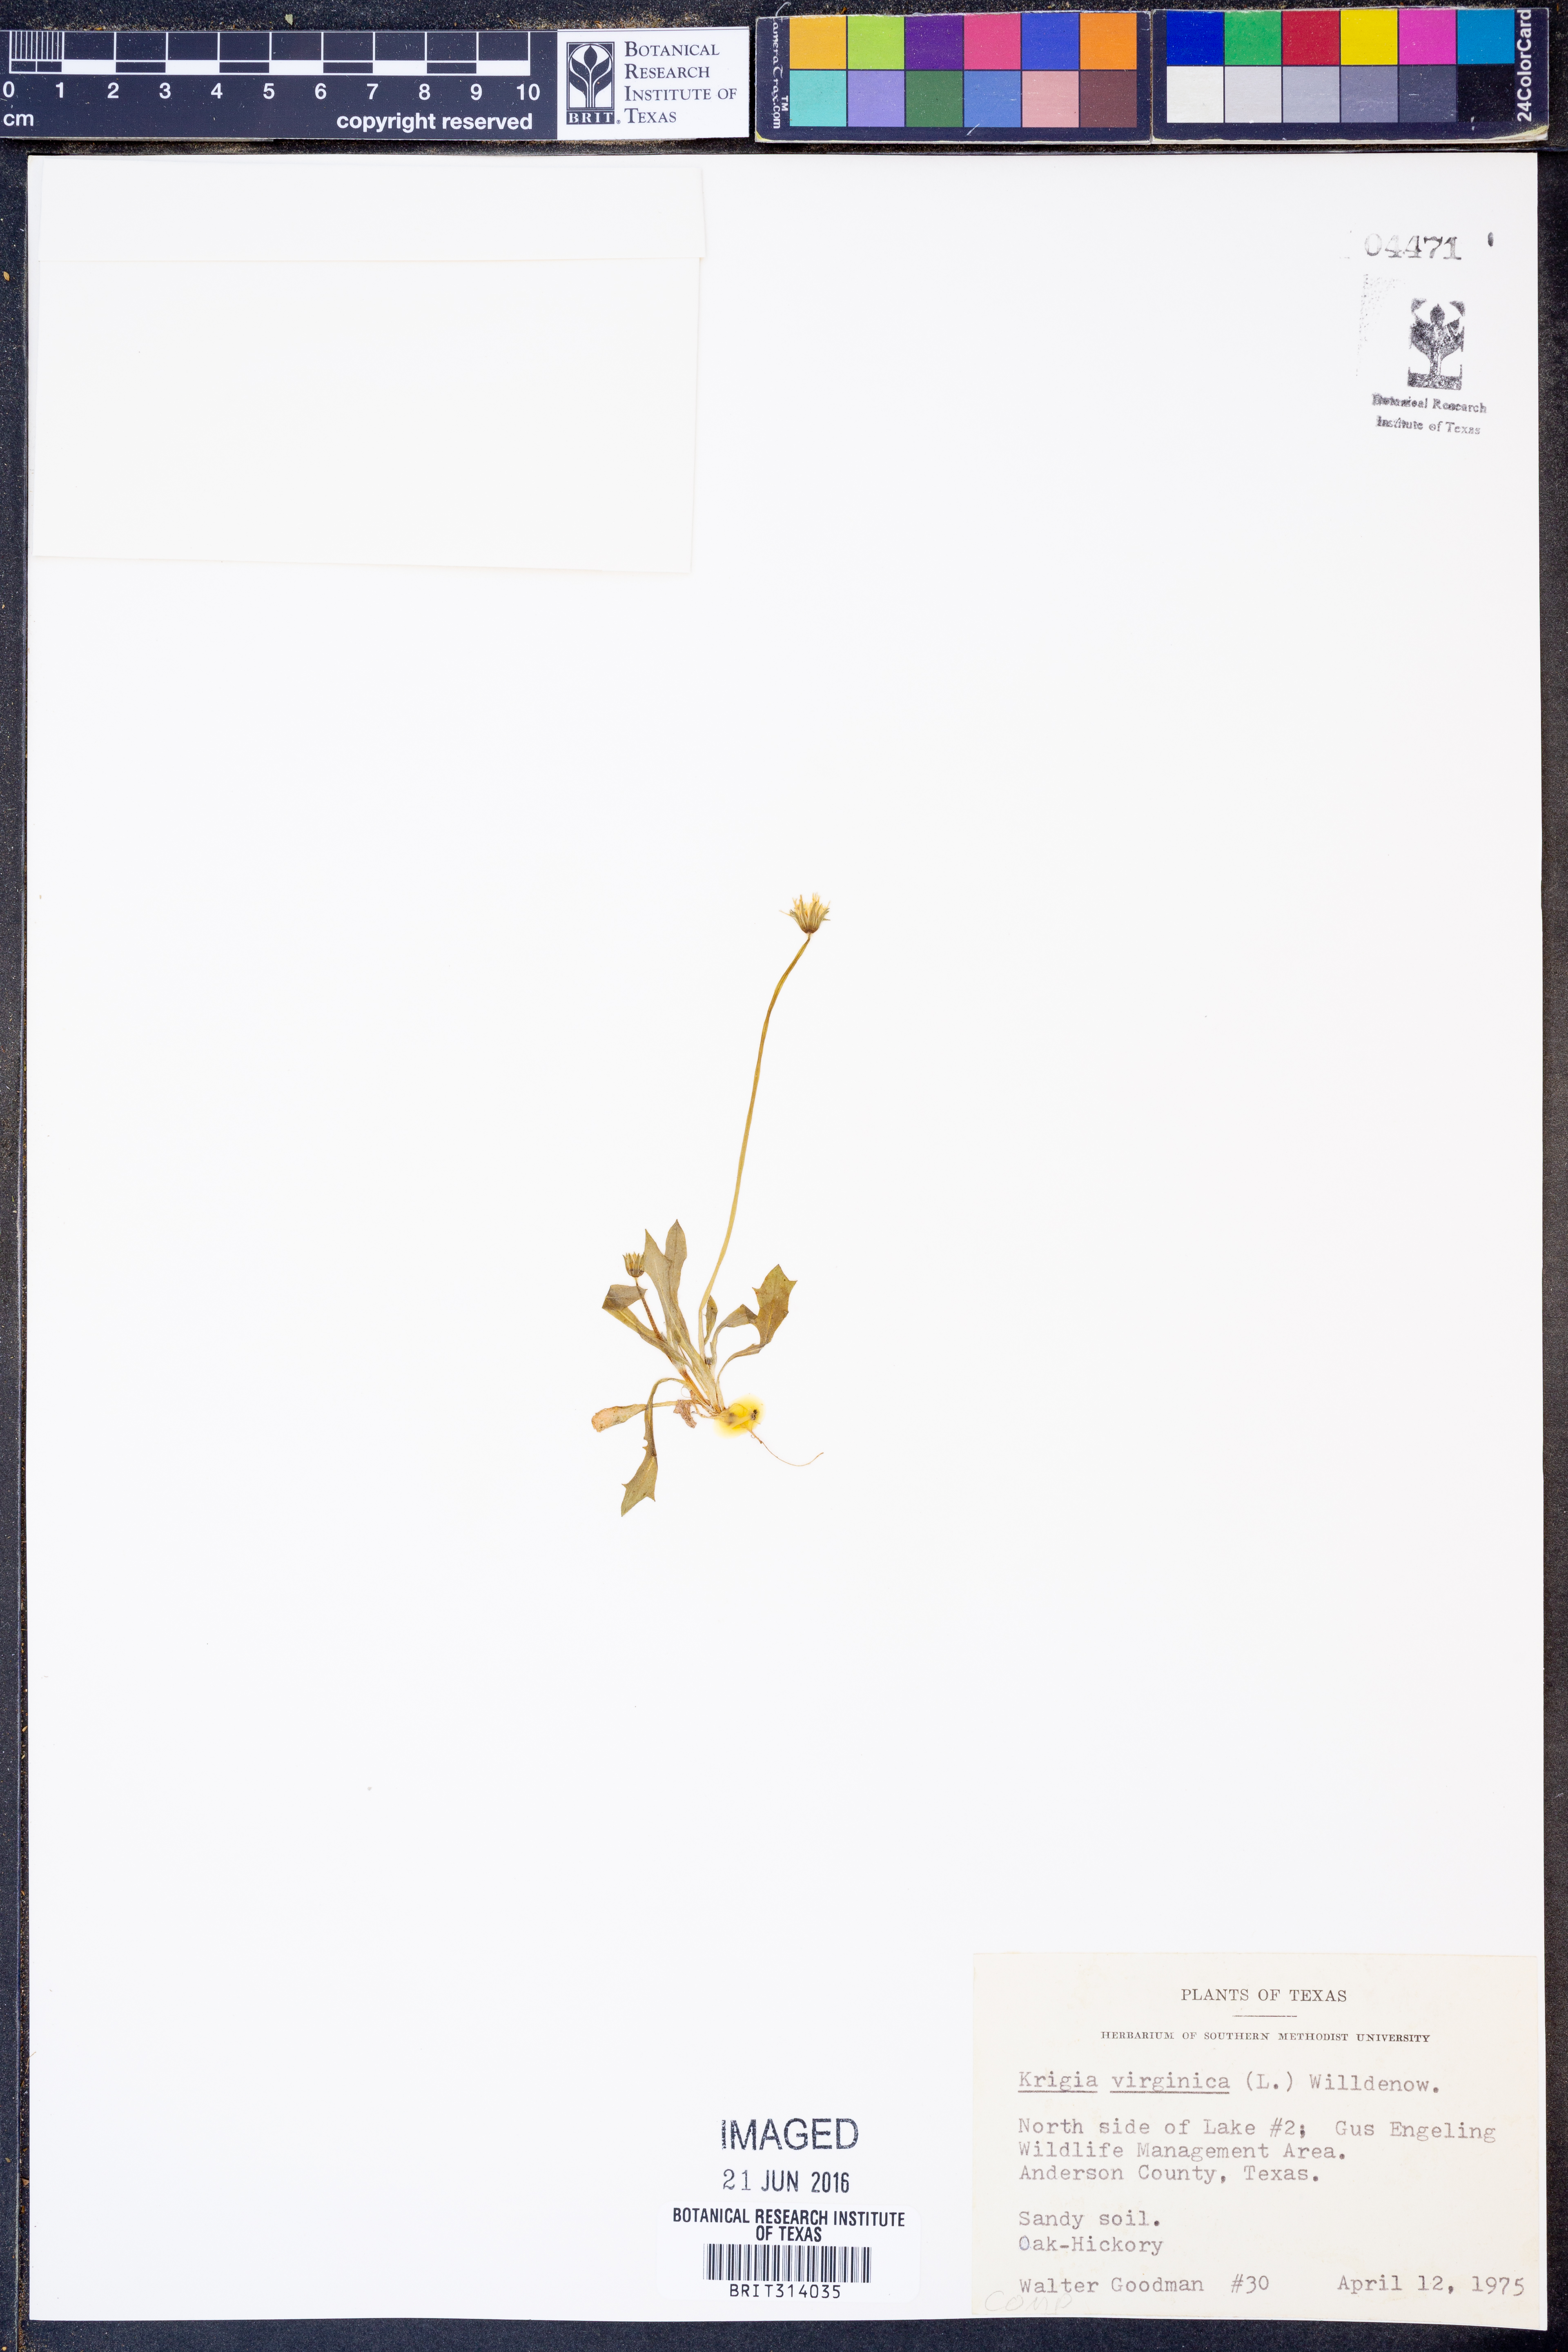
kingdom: Plantae
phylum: Tracheophyta
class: Magnoliopsida
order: Asterales
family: Asteraceae
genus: Krigia
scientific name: Krigia virginica
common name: Virginia dwarf-dandelion
